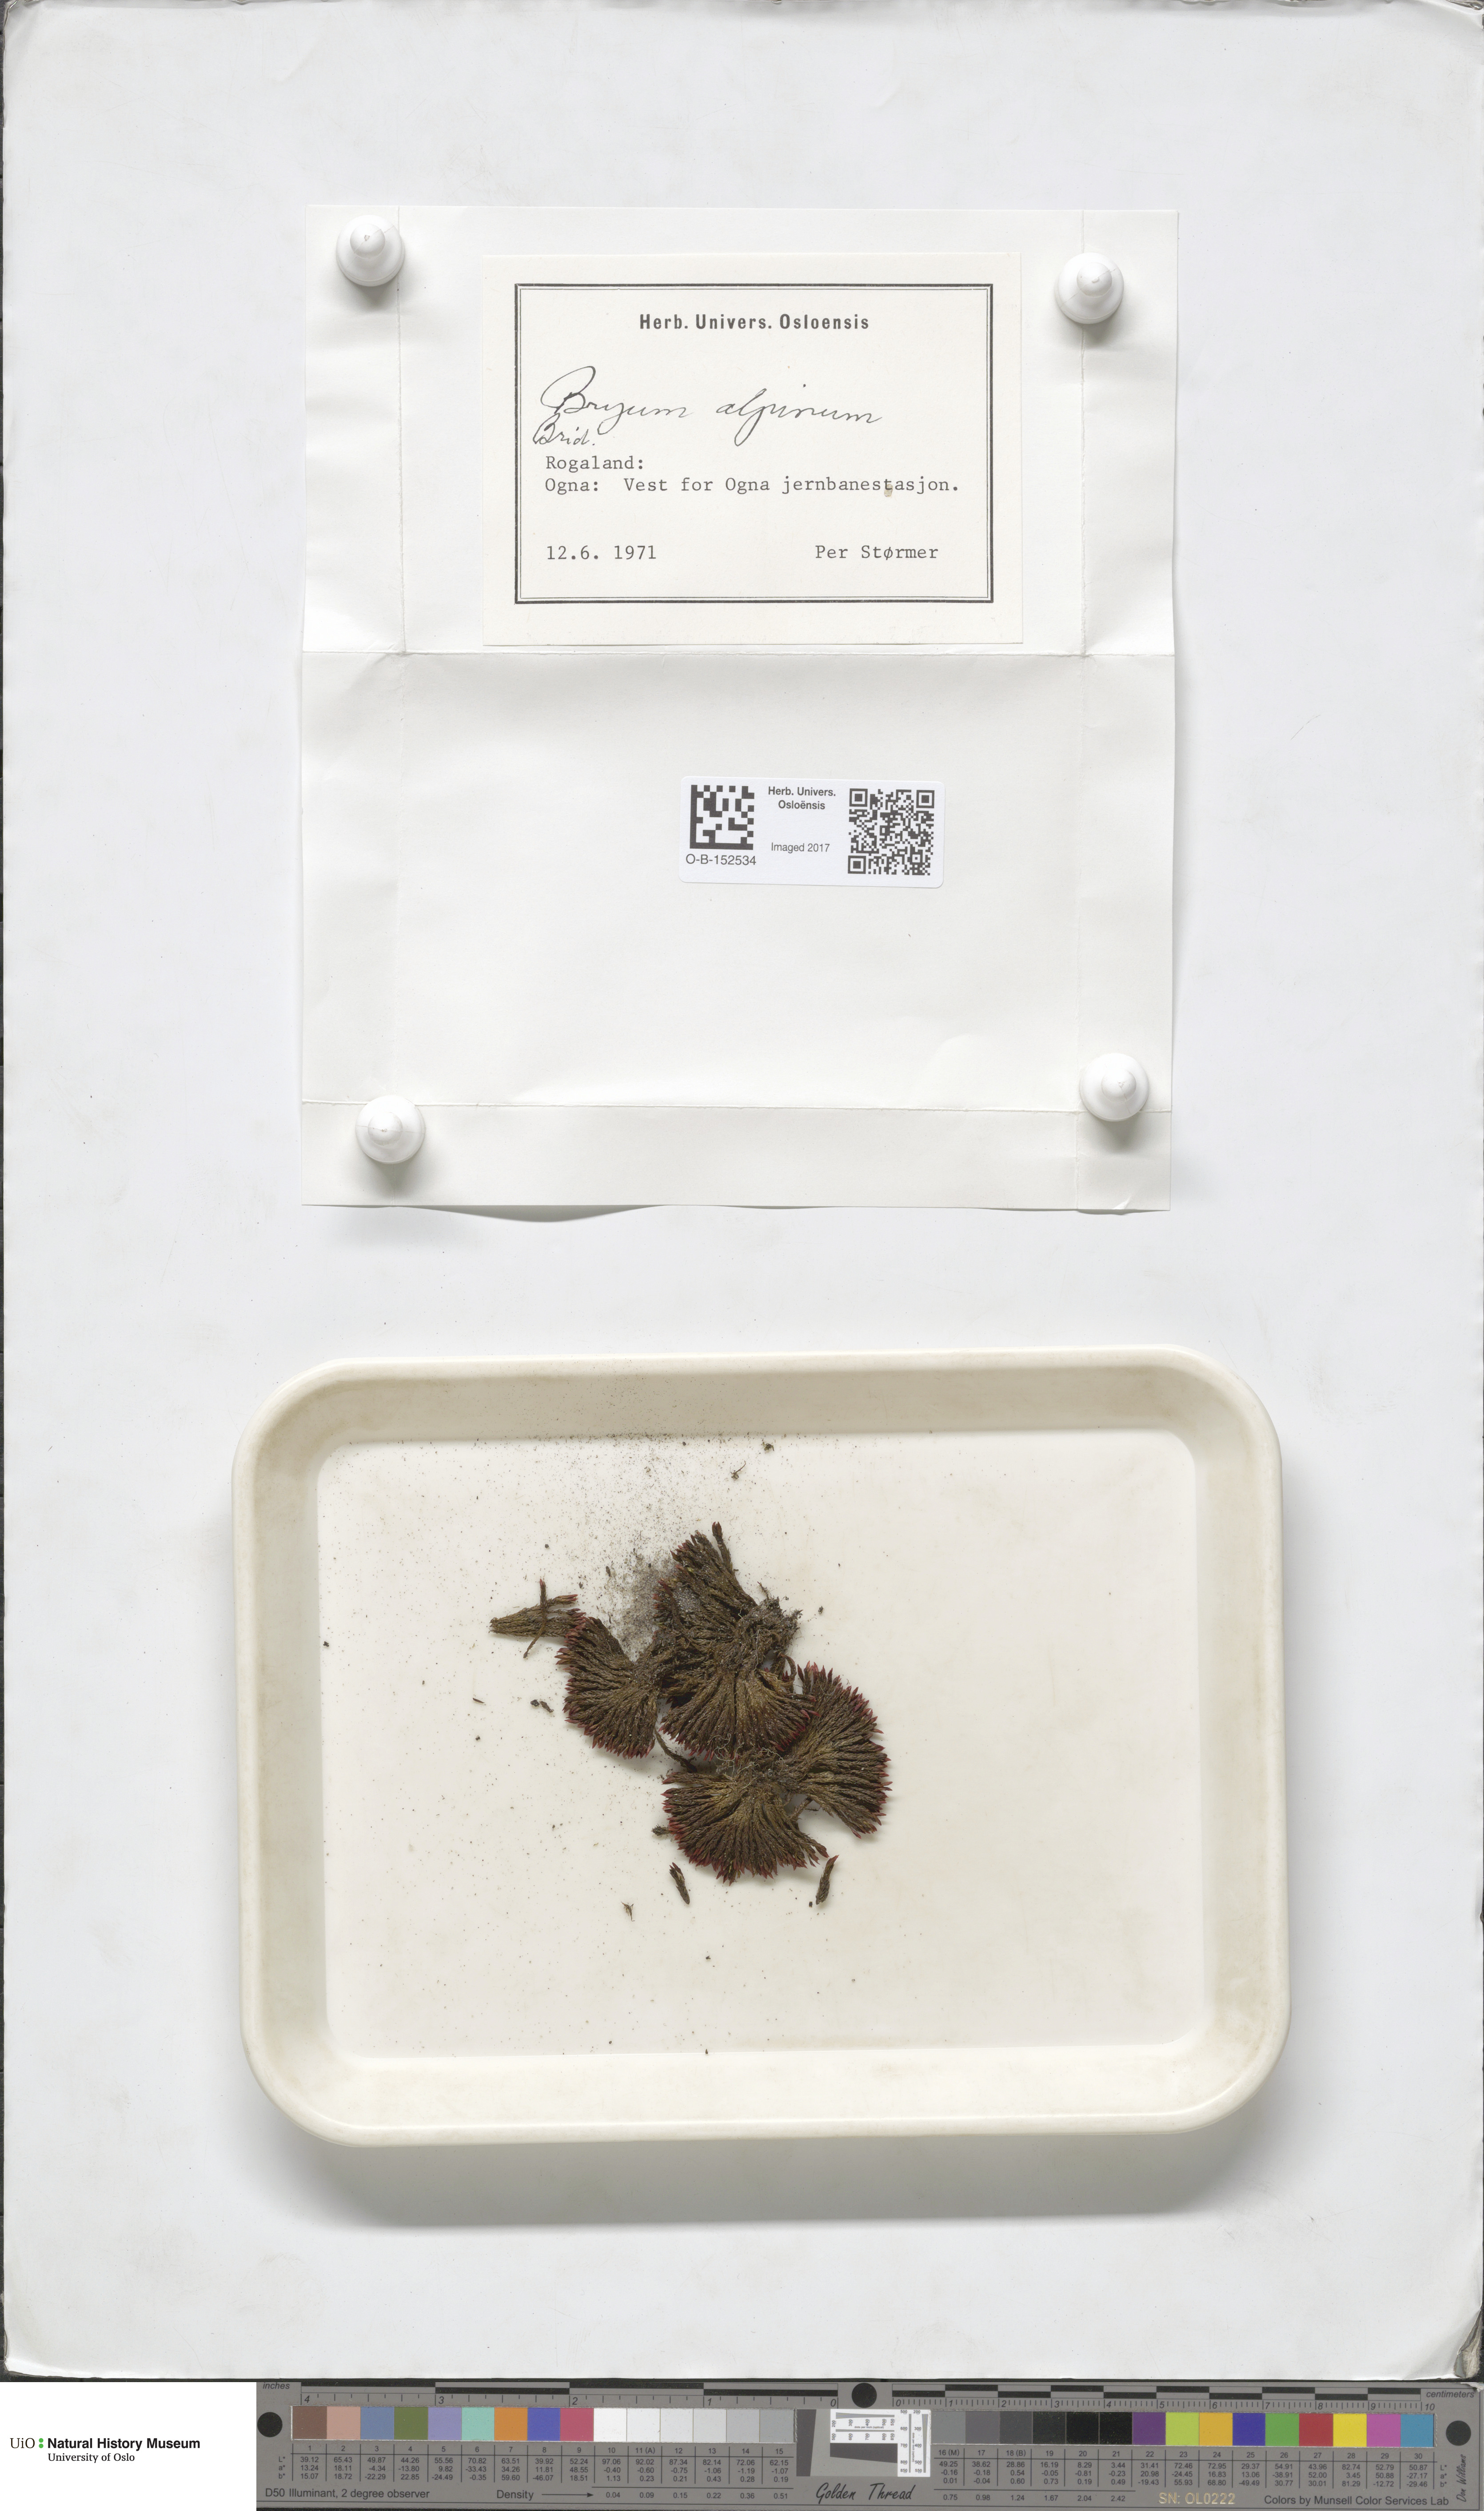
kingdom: Plantae
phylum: Bryophyta
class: Bryopsida
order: Bryales
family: Bryaceae
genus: Imbribryum
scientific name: Imbribryum alpinum
